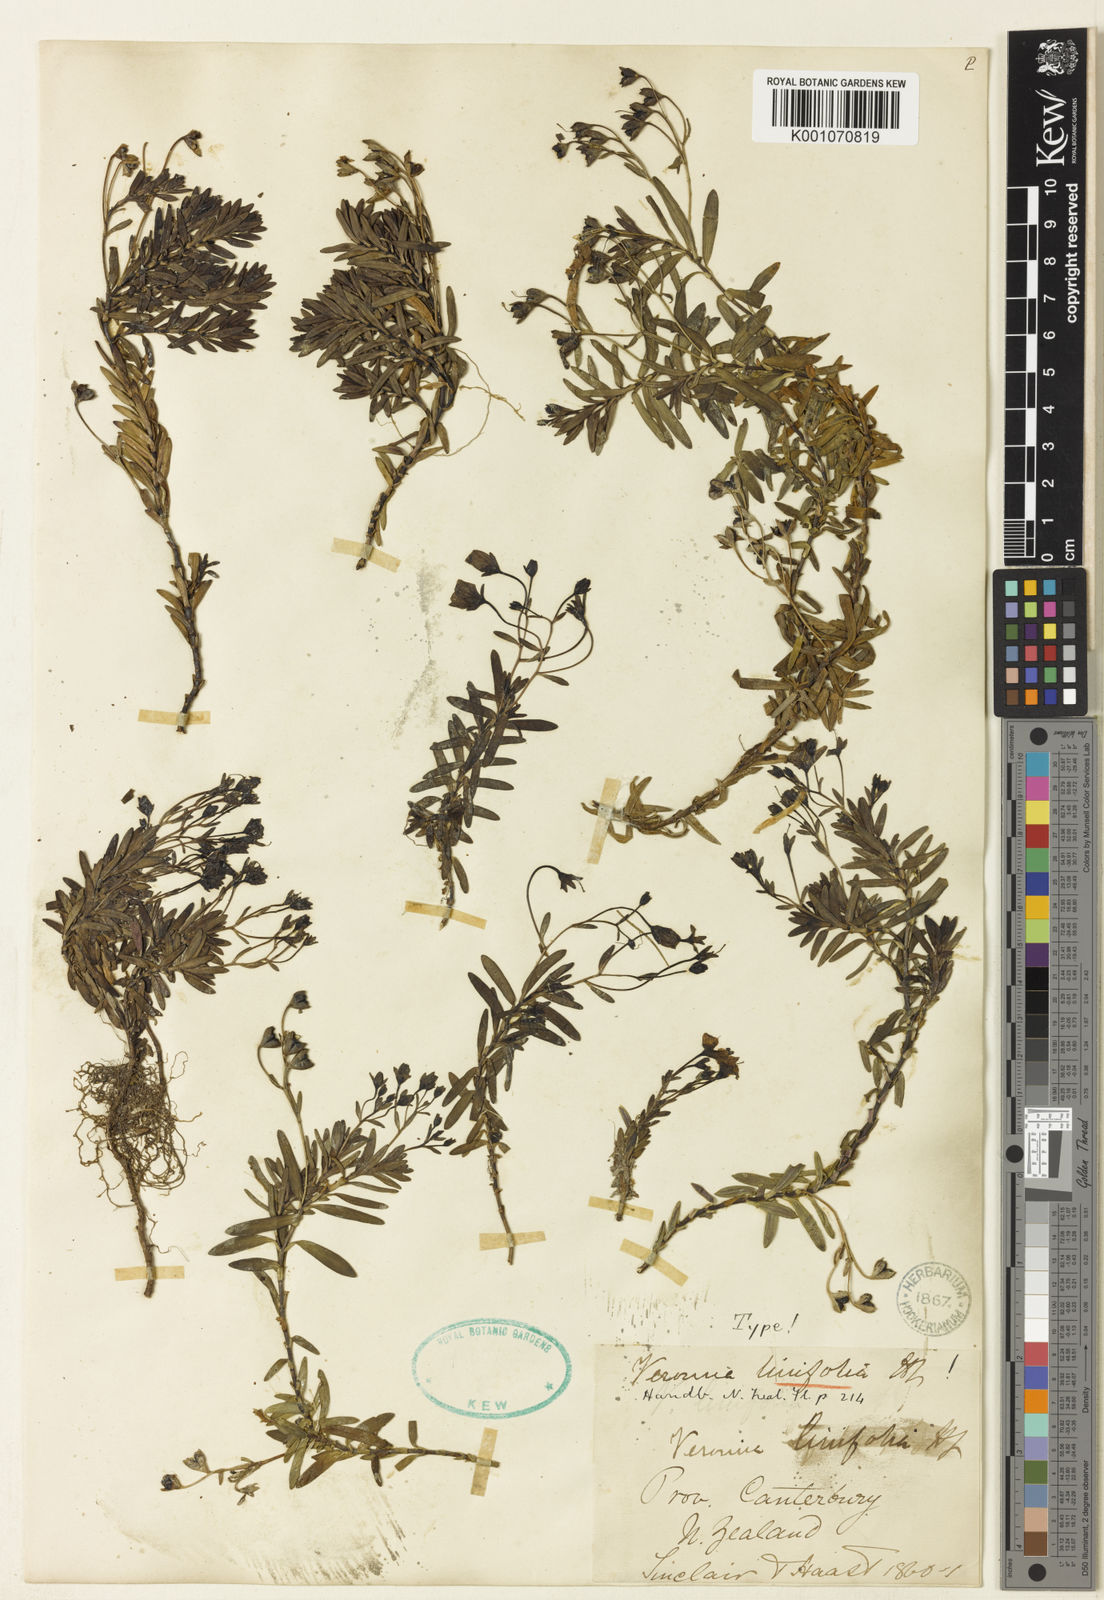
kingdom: Plantae
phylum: Tracheophyta
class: Magnoliopsida
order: Lamiales
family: Plantaginaceae
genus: Veronica
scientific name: Veronica linifolia
